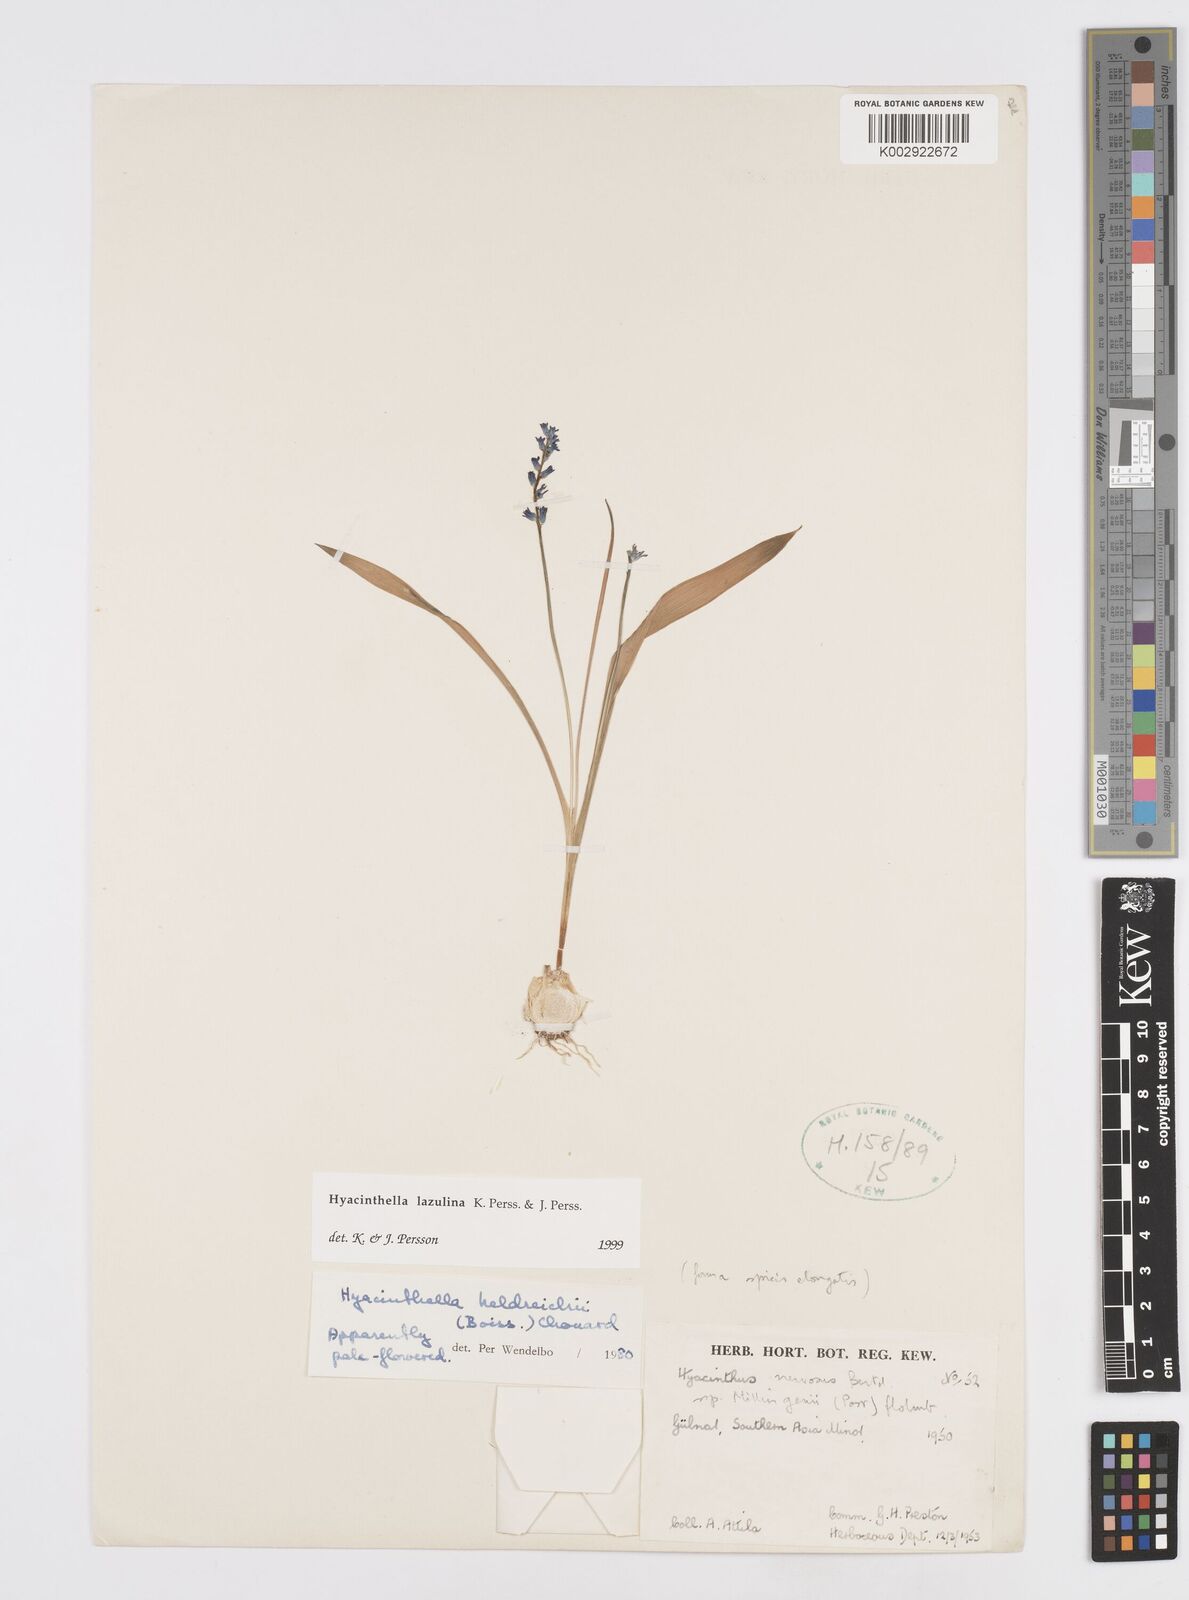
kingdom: Plantae
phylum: Tracheophyta
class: Liliopsida
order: Asparagales
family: Asparagaceae
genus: Hyacinthella
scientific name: Hyacinthella lazulina
